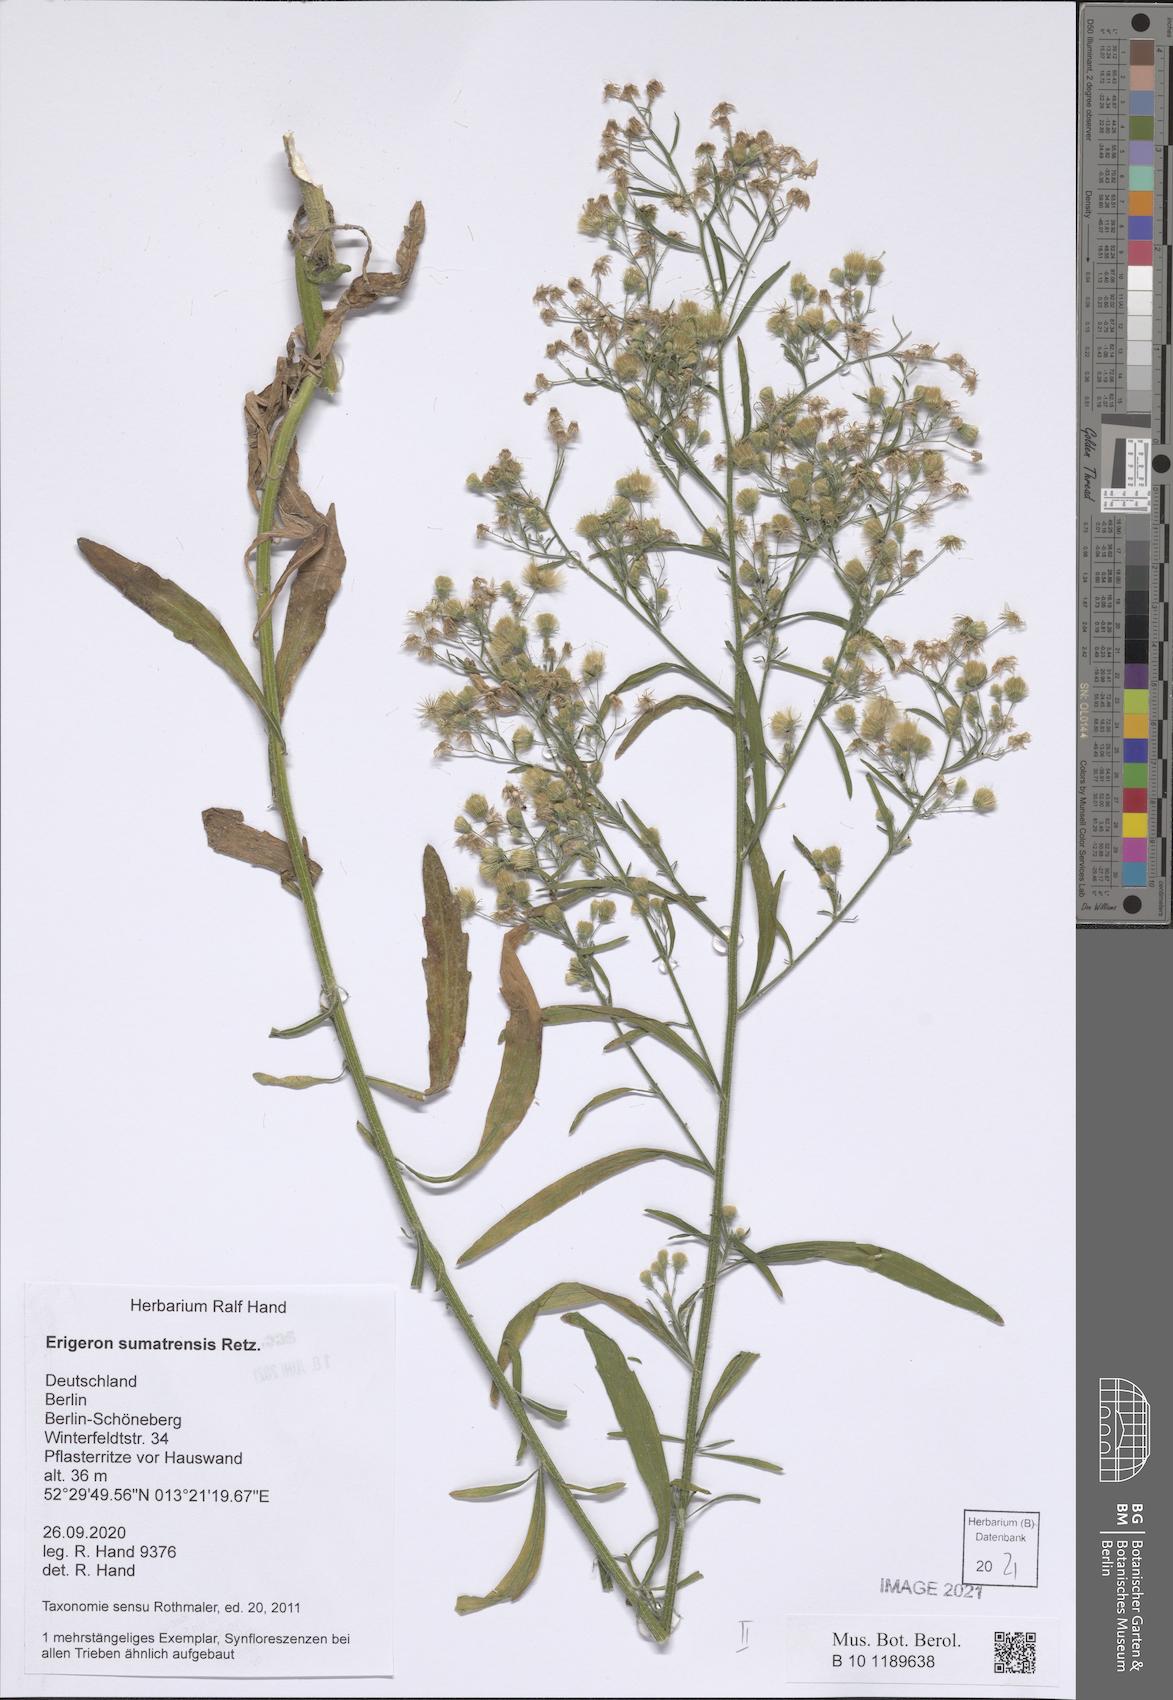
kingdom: Plantae
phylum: Tracheophyta
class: Magnoliopsida
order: Asterales
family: Asteraceae
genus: Erigeron
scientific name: Erigeron sumatrensis
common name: Daisy
